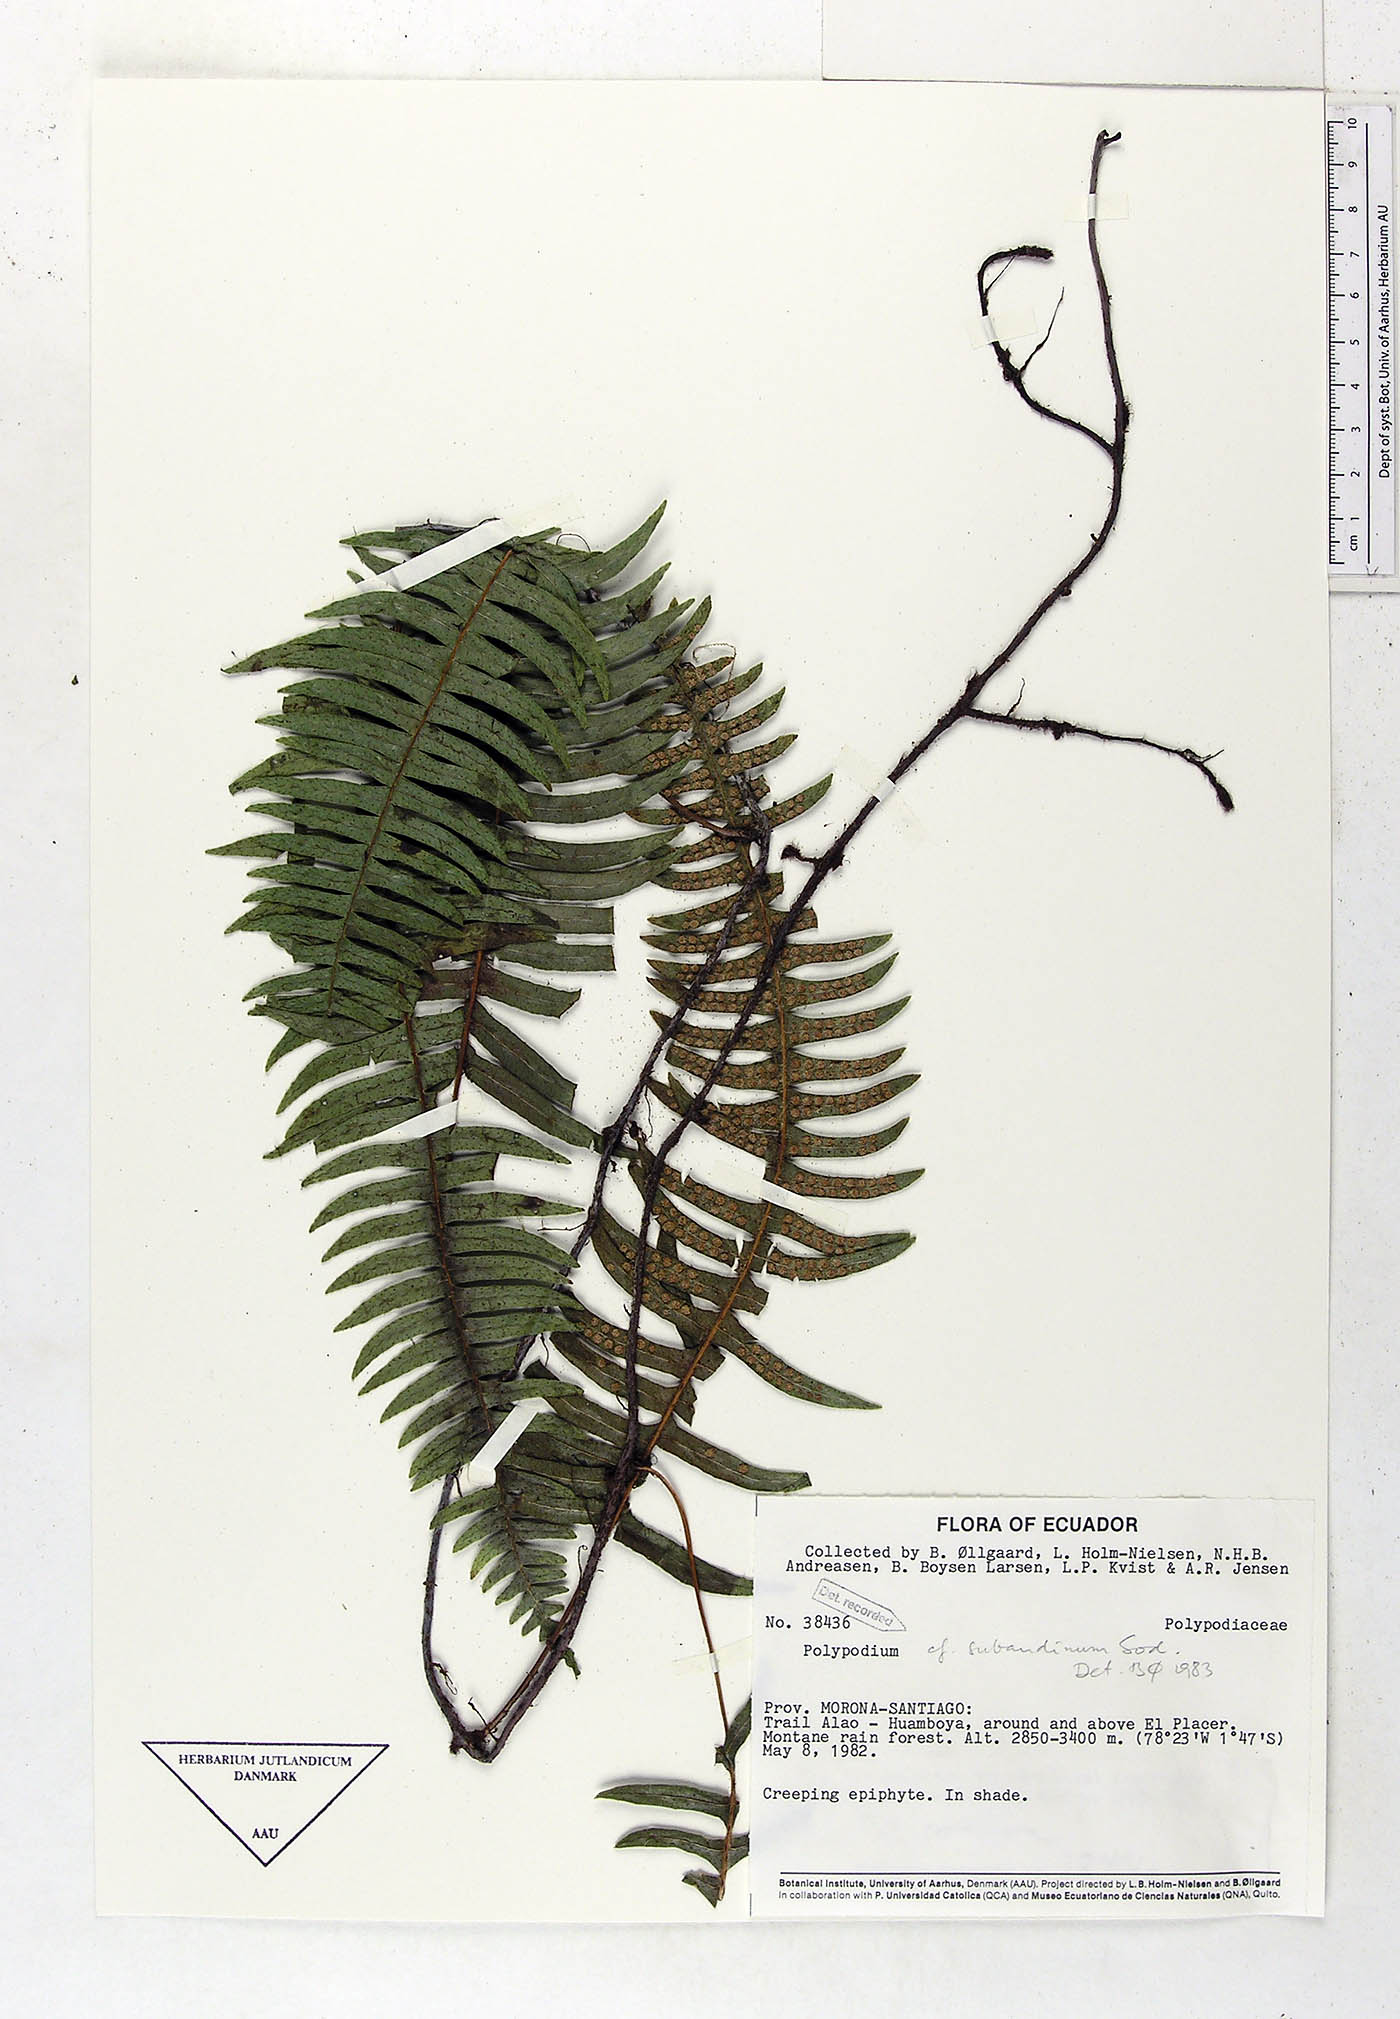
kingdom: Plantae
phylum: Tracheophyta
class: Polypodiopsida
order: Polypodiales
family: Polypodiaceae
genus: Serpocaulon
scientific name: Serpocaulon subandinum
